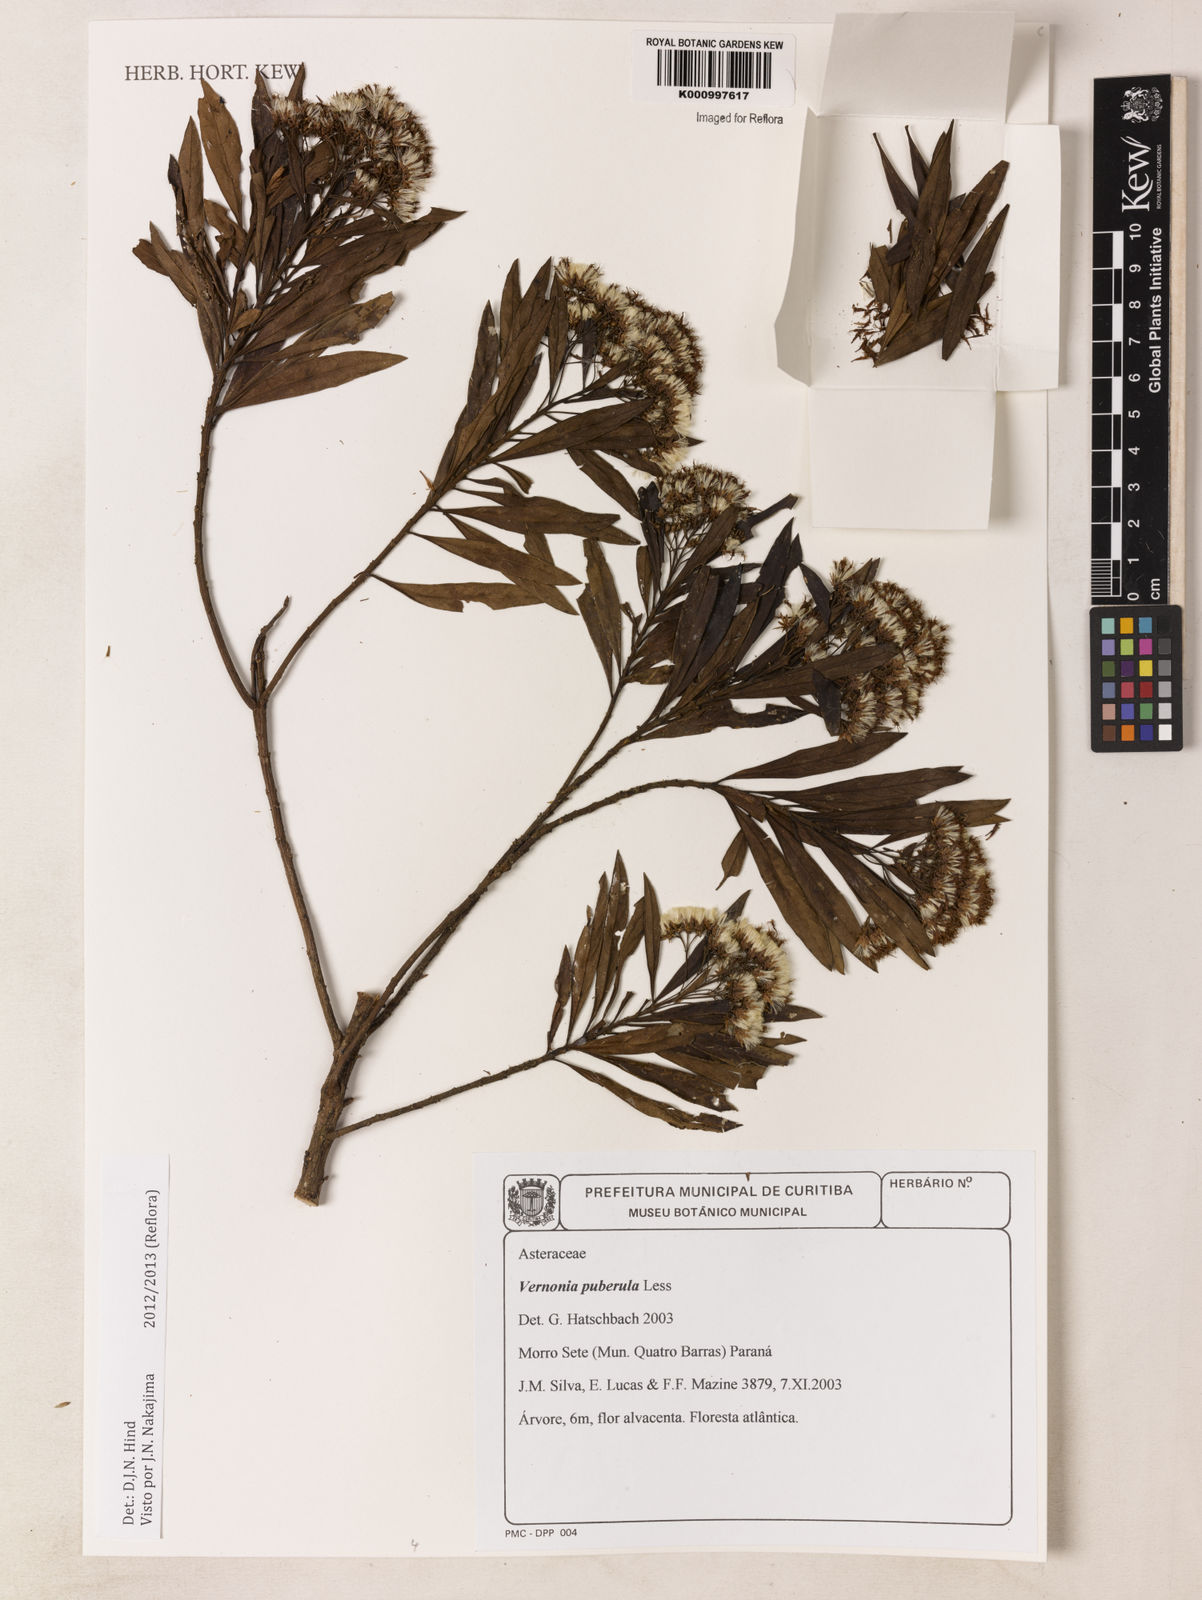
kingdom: Plantae
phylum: Tracheophyta
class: Magnoliopsida
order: Asterales
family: Asteraceae
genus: Vernonanthura
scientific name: Vernonanthura puberula
